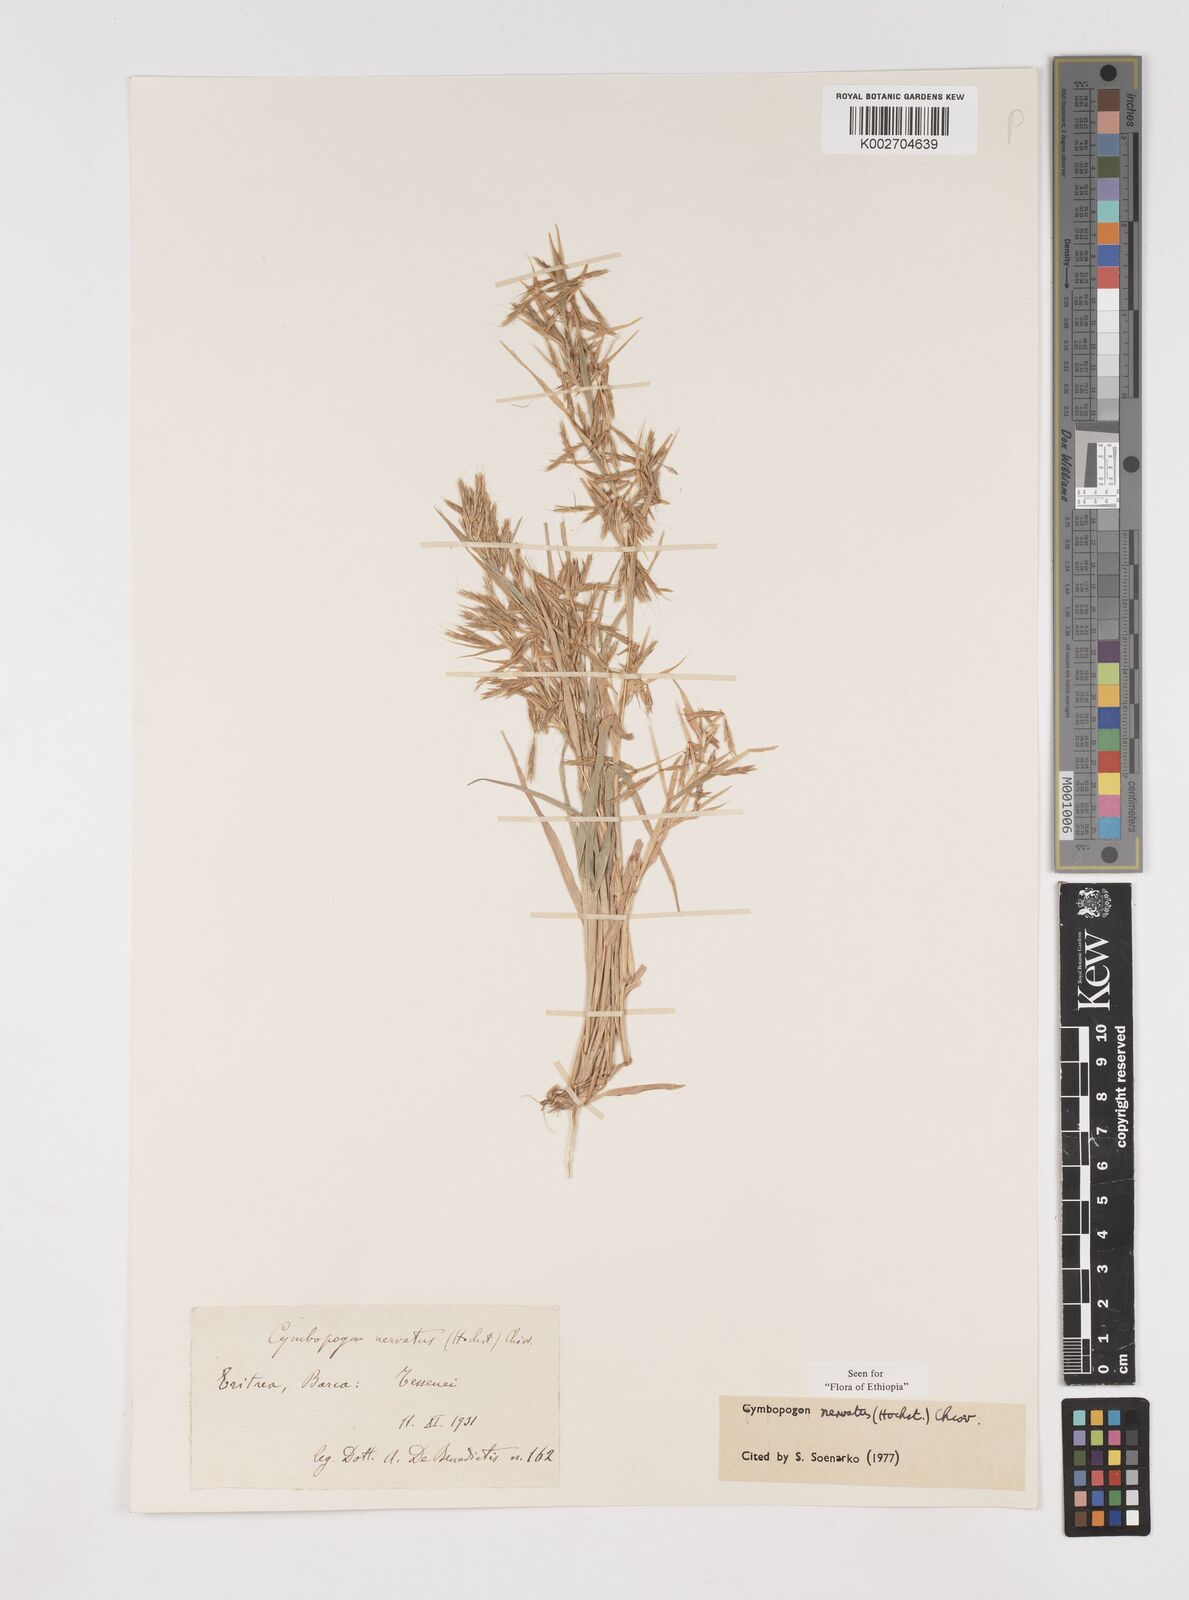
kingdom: Plantae
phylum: Tracheophyta
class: Liliopsida
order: Poales
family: Poaceae
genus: Cymbopogon
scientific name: Cymbopogon nervatus
